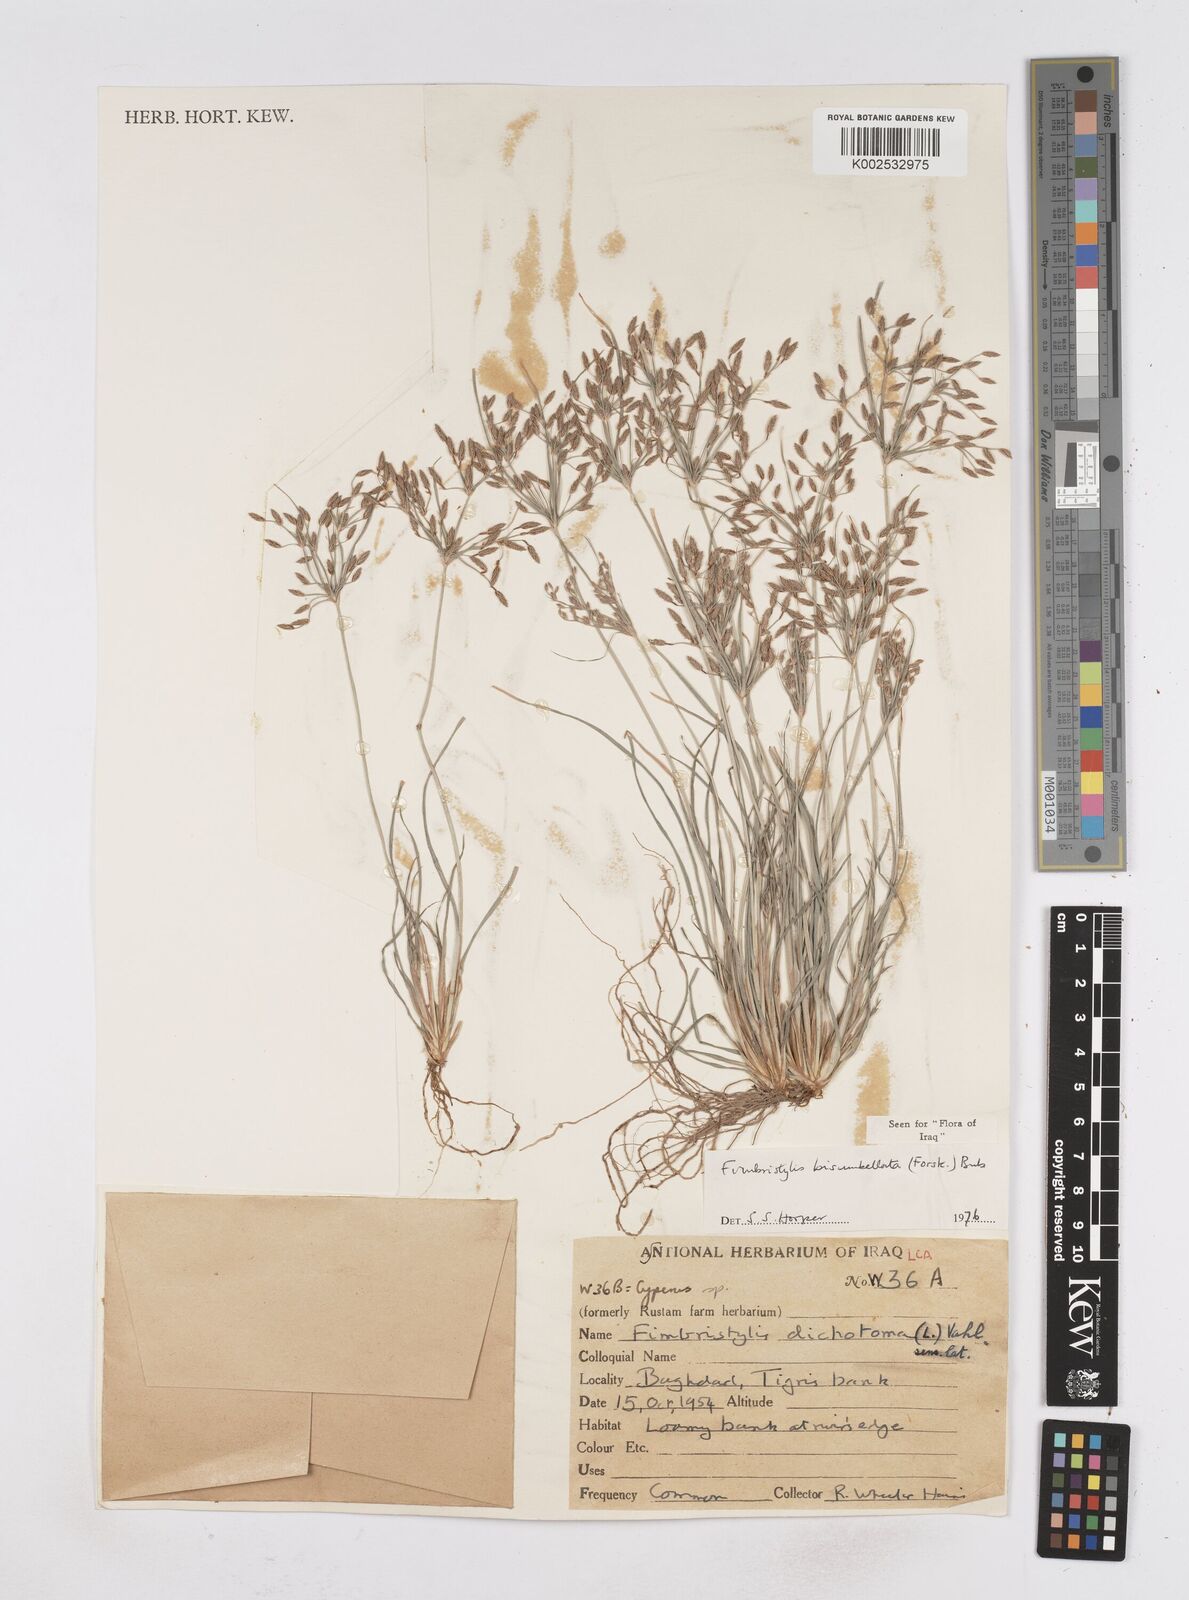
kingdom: Plantae
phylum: Tracheophyta
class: Liliopsida
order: Poales
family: Cyperaceae
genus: Fimbristylis
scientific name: Fimbristylis bisumbellata
